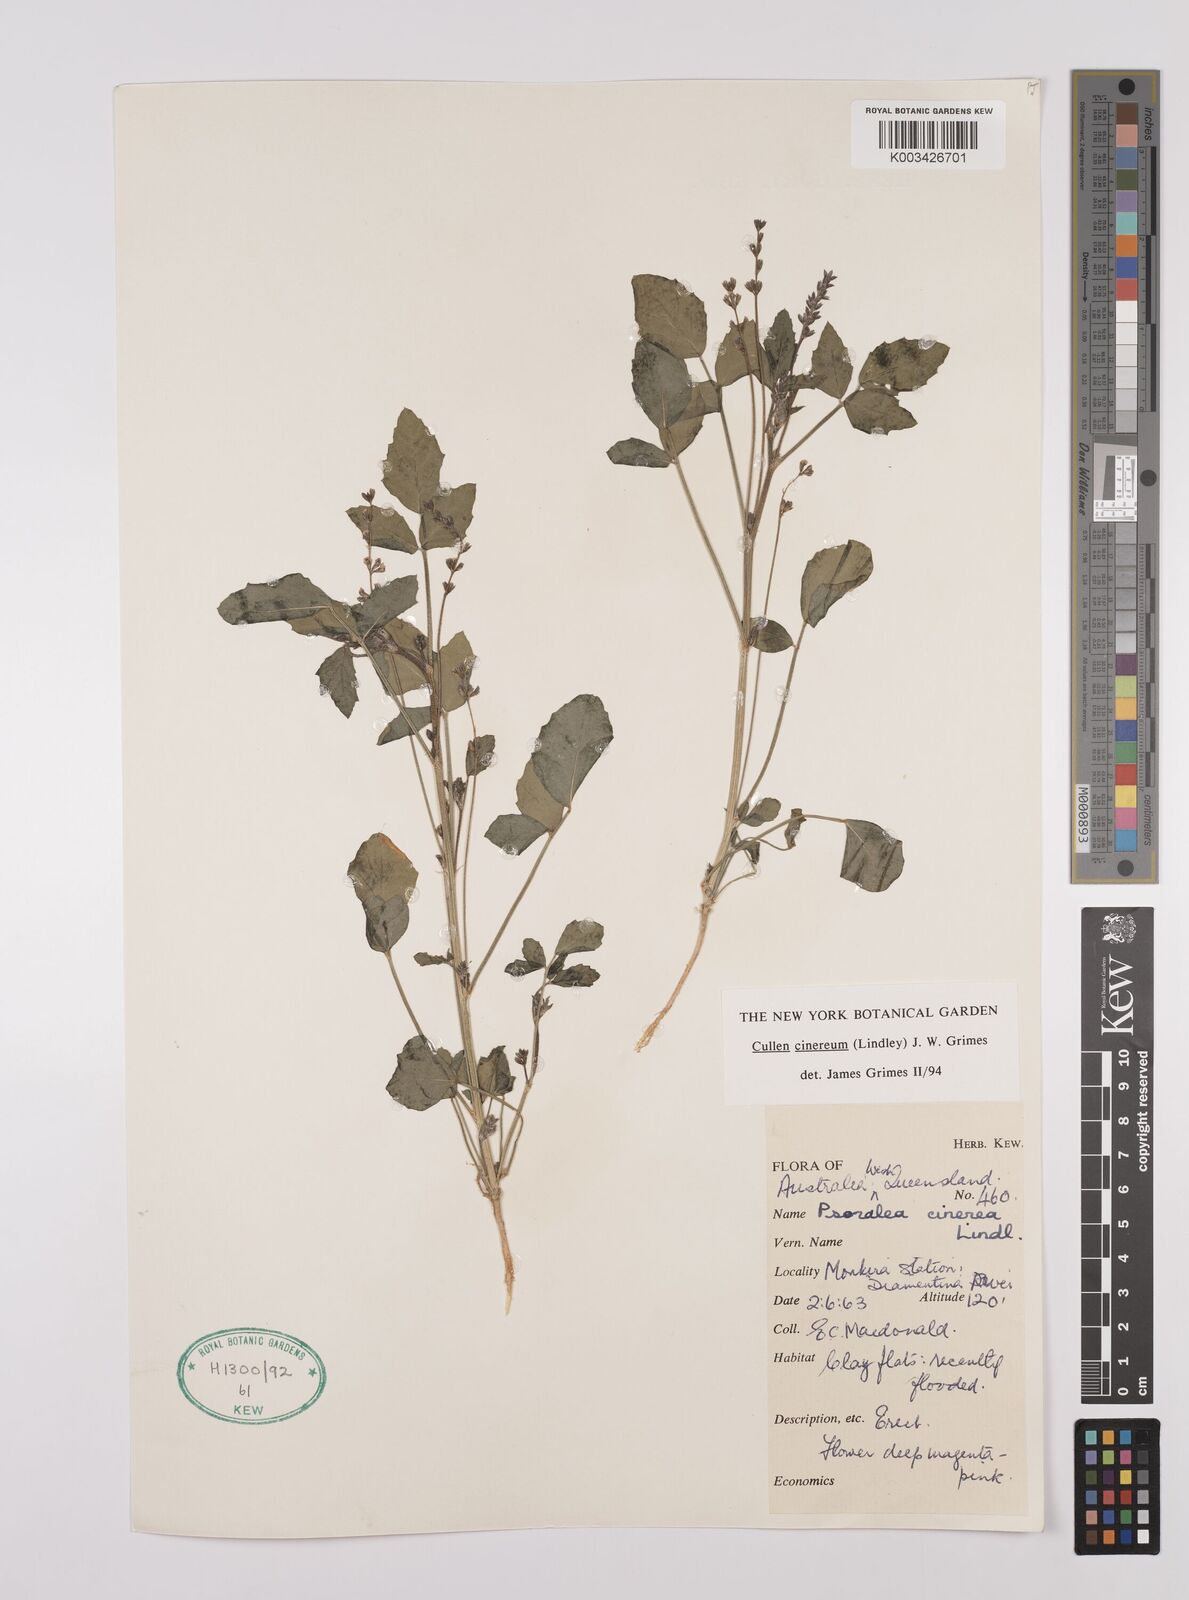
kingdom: Plantae
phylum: Tracheophyta
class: Magnoliopsida
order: Fabales
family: Fabaceae
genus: Cullen
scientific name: Cullen cinereum
